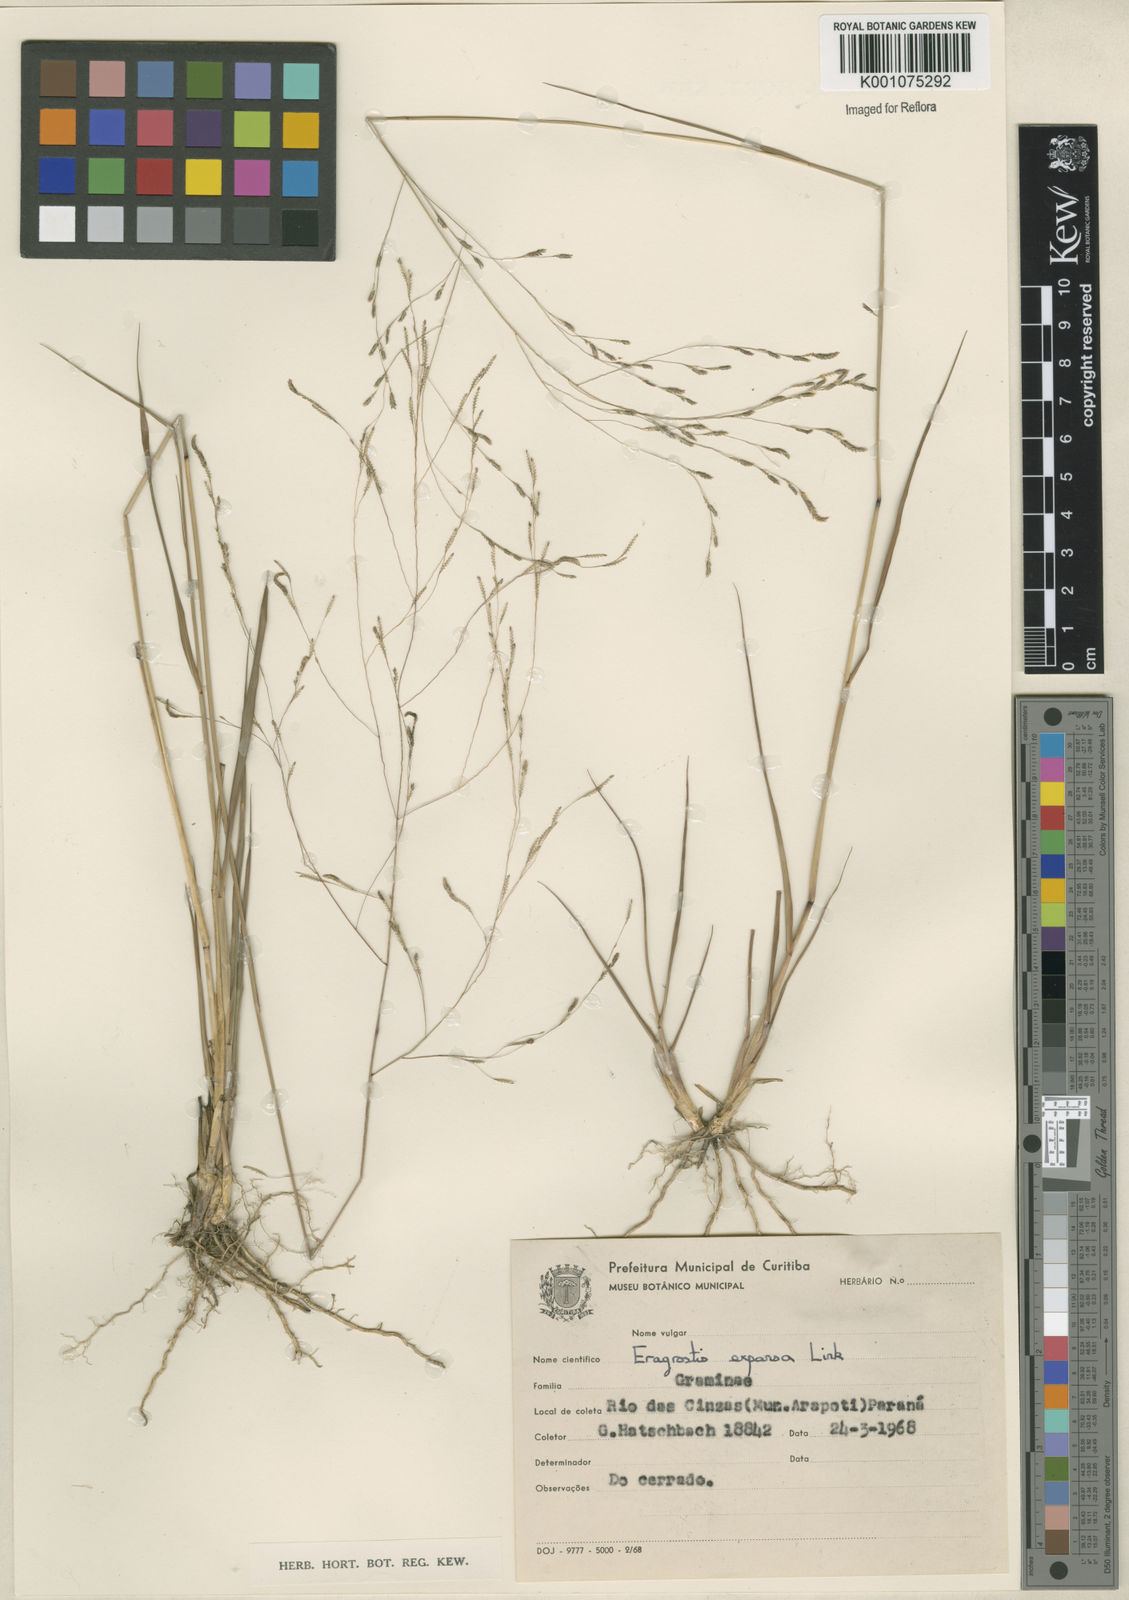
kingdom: Plantae
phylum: Tracheophyta
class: Liliopsida
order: Poales
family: Poaceae
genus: Eragrostis
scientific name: Eragrostis bahiensis
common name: Bahia lovegrass
